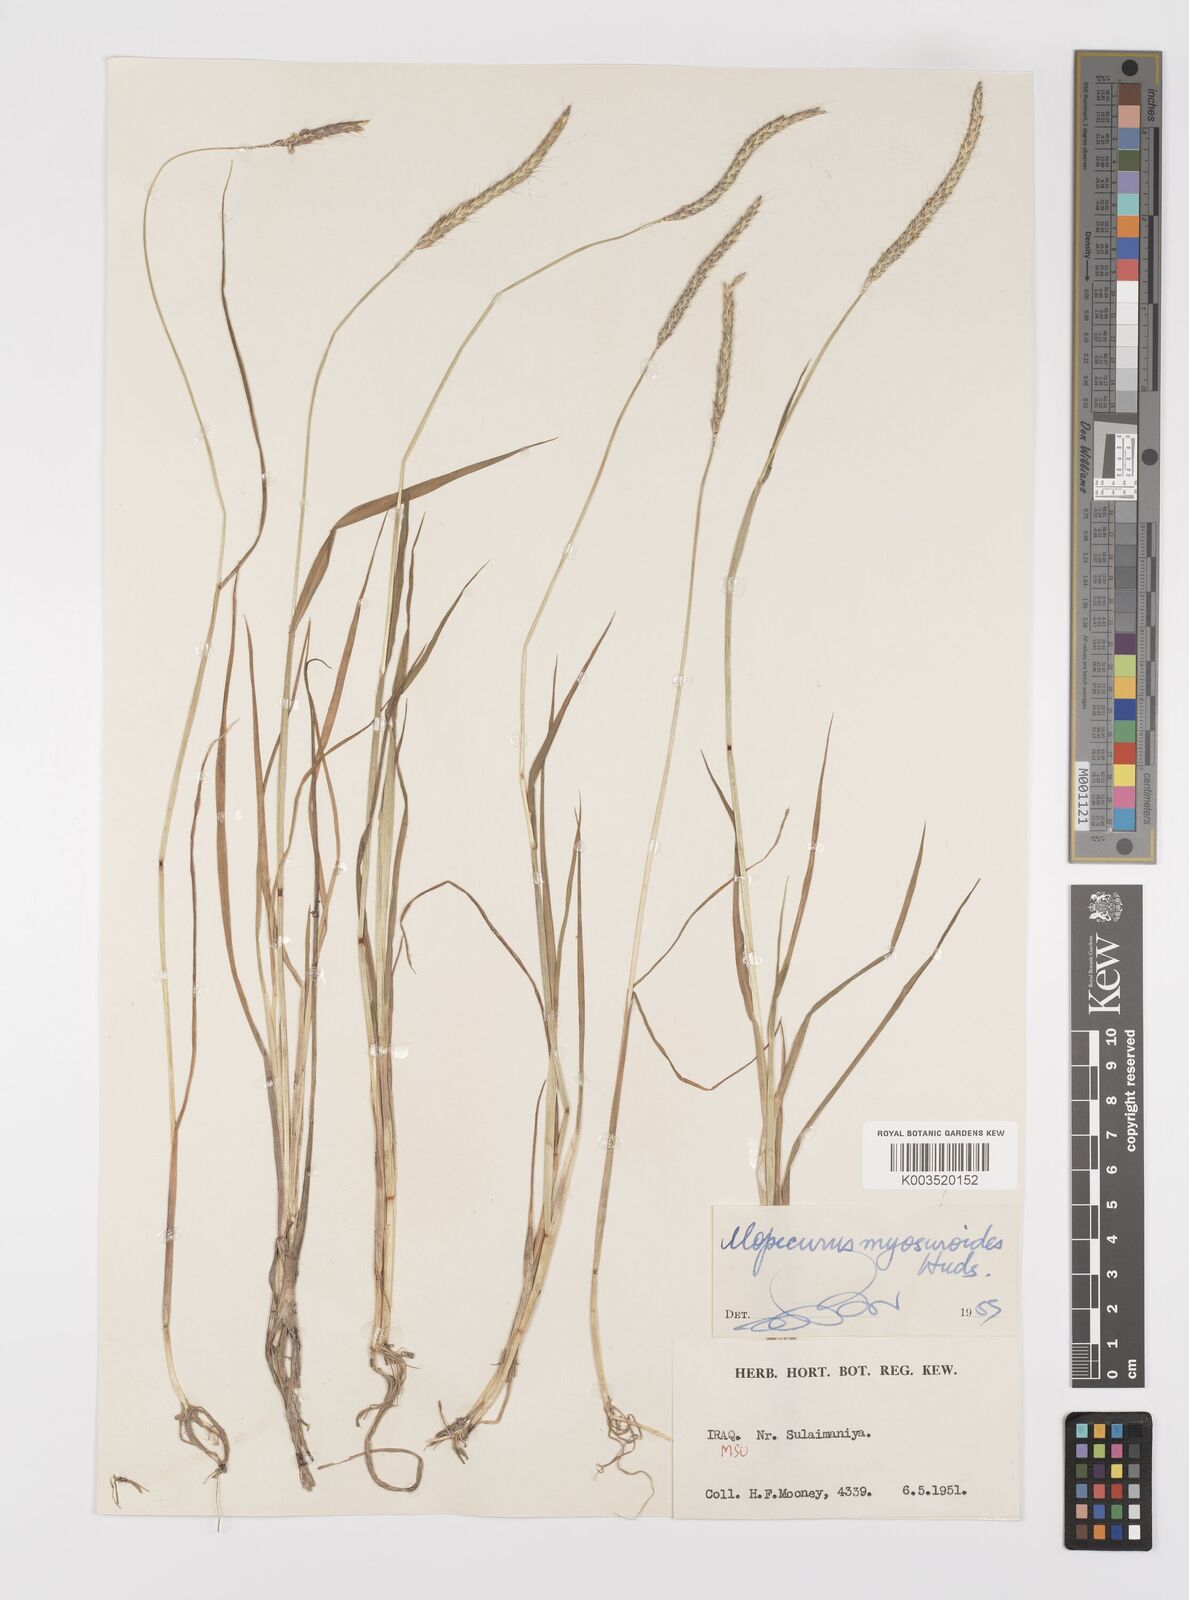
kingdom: Plantae
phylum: Tracheophyta
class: Liliopsida
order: Poales
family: Poaceae
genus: Alopecurus
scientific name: Alopecurus myosuroides
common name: Black-grass
